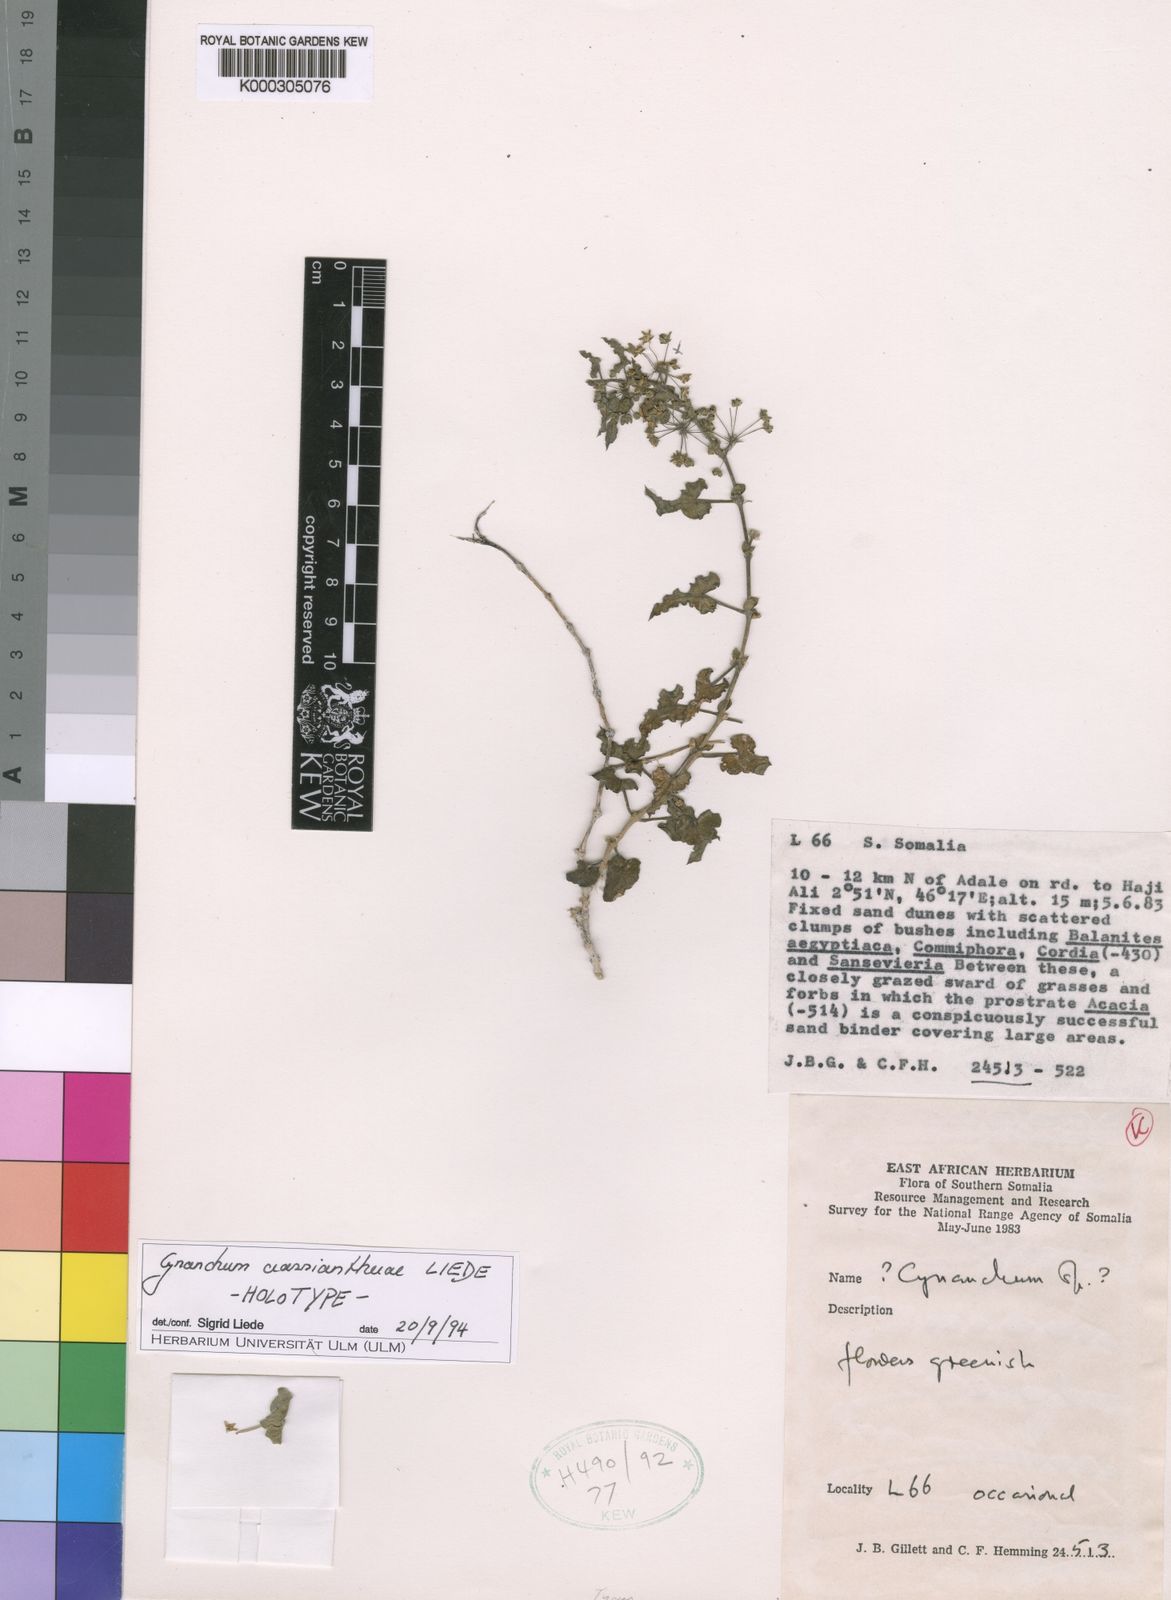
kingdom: Plantae
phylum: Tracheophyta
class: Magnoliopsida
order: Gentianales
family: Apocynaceae
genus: Cynanchum
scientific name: Cynanchum crassiantherae
